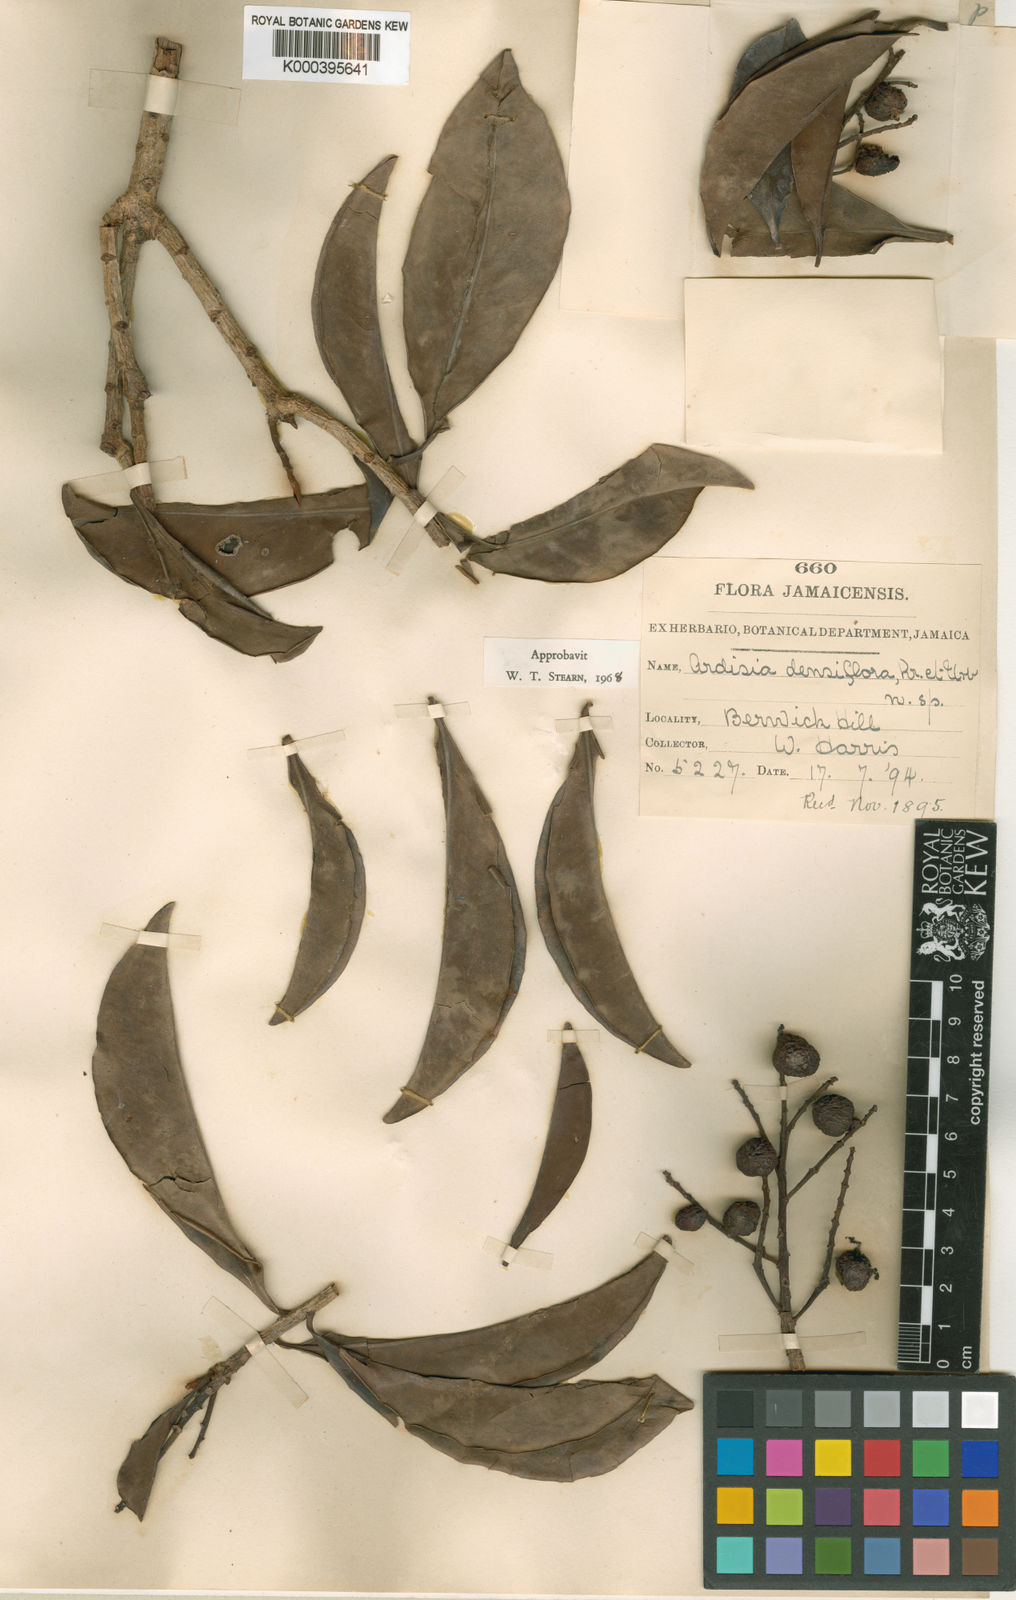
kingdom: Plantae
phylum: Tracheophyta
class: Magnoliopsida
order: Ericales
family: Primulaceae
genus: Ardisia
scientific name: Ardisia bracteosa
